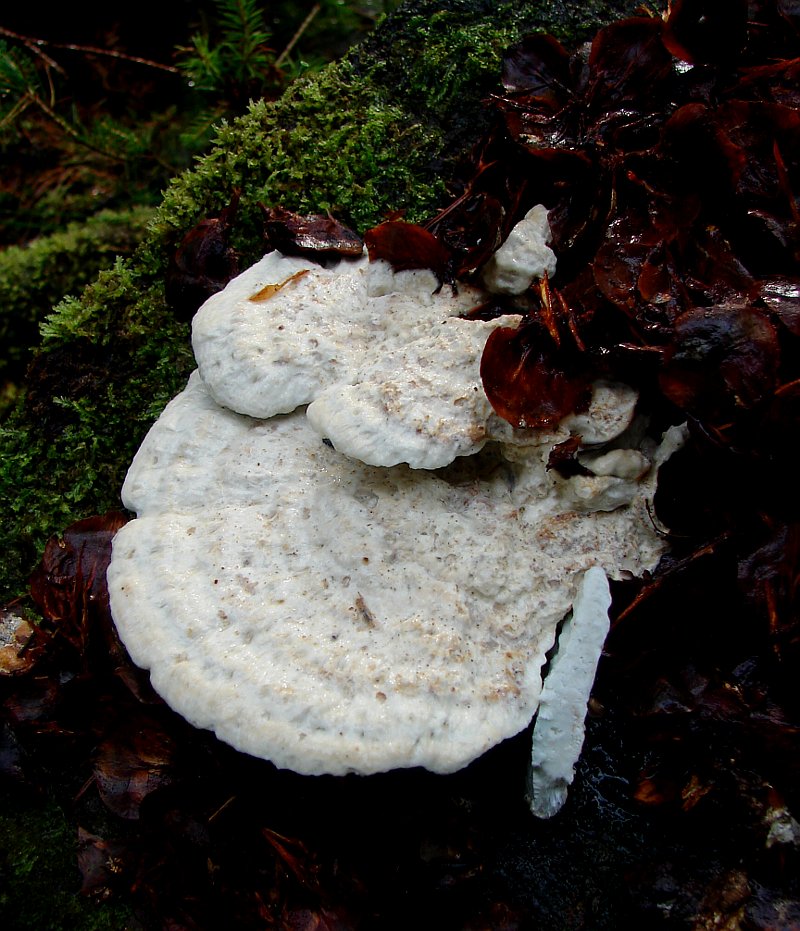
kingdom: Fungi
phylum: Basidiomycota
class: Agaricomycetes
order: Polyporales
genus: Calcipostia
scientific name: Calcipostia guttulata
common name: dråbe-kødporesvamp
